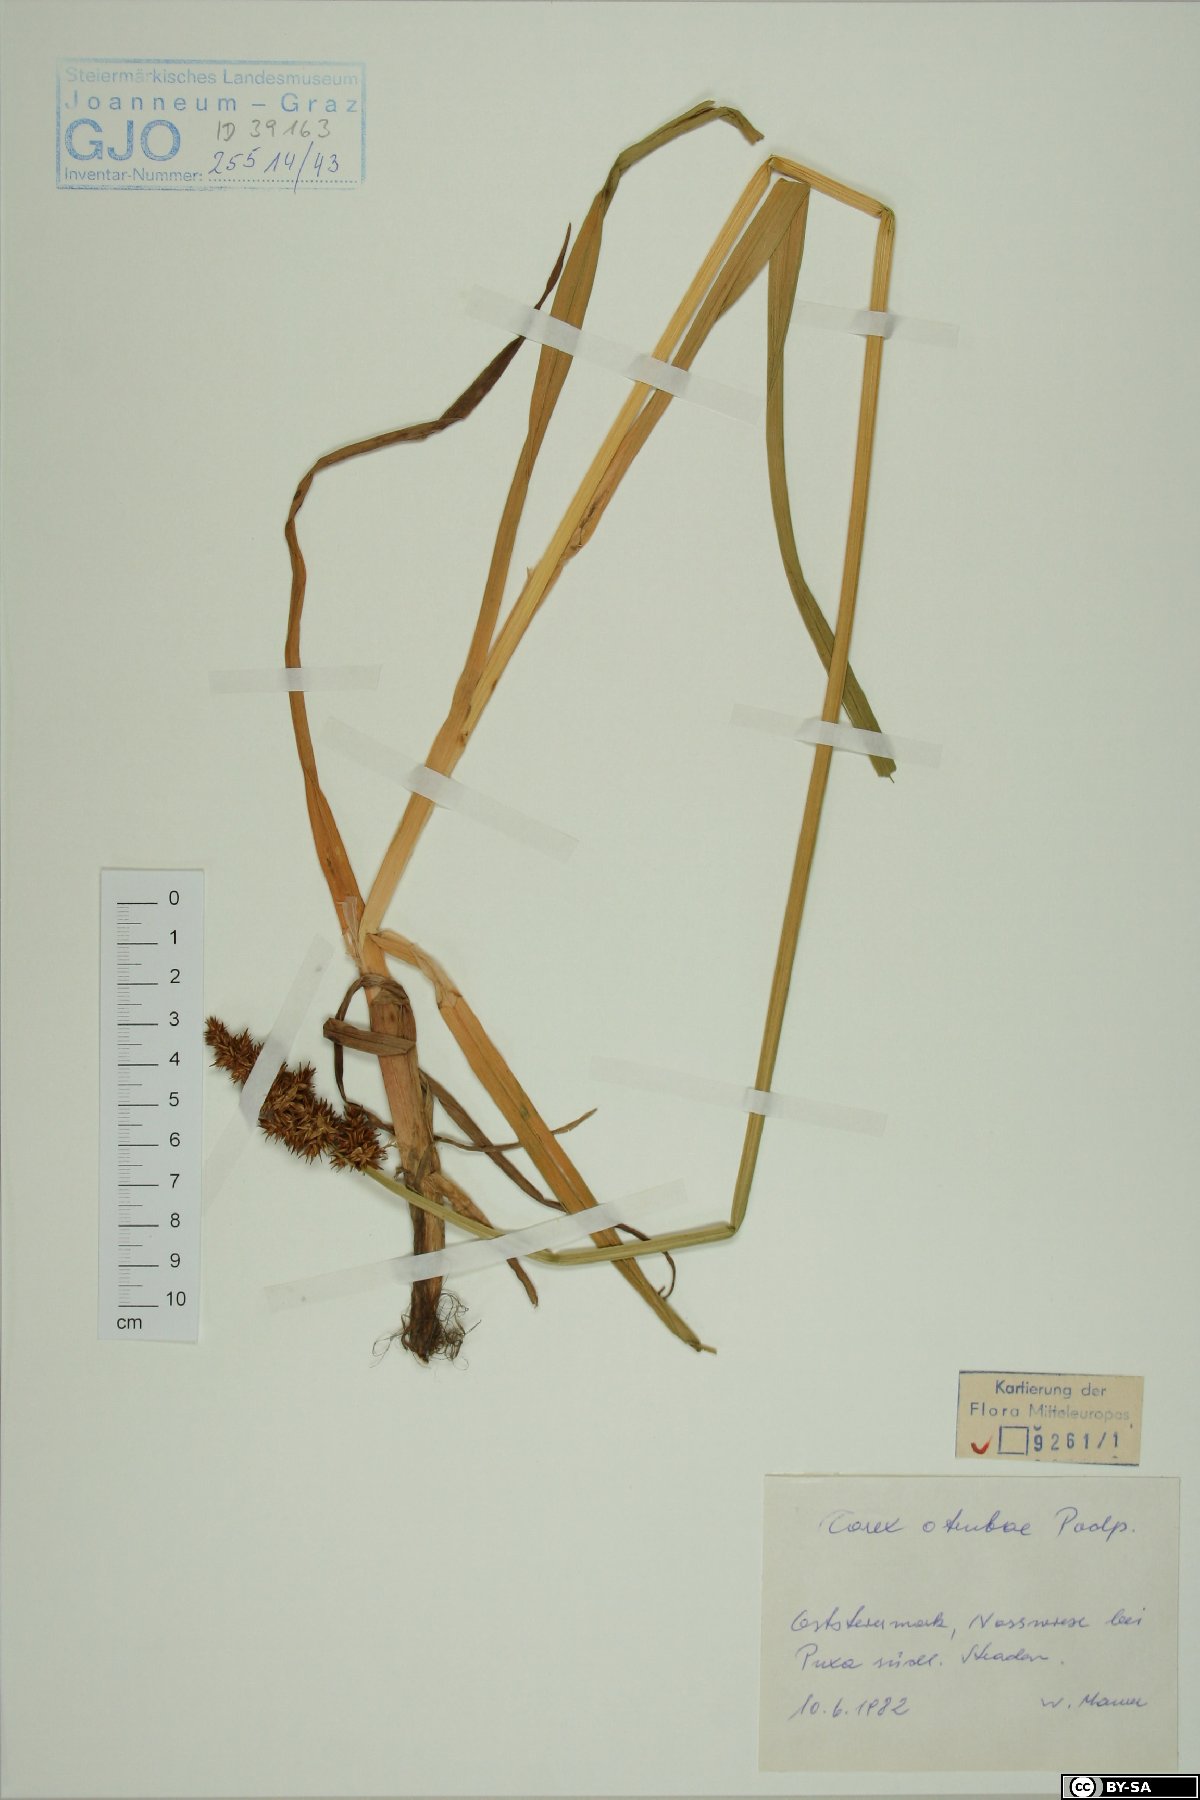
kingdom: Plantae
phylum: Tracheophyta
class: Liliopsida
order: Poales
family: Cyperaceae
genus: Carex
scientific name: Carex otrubae
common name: False fox-sedge
